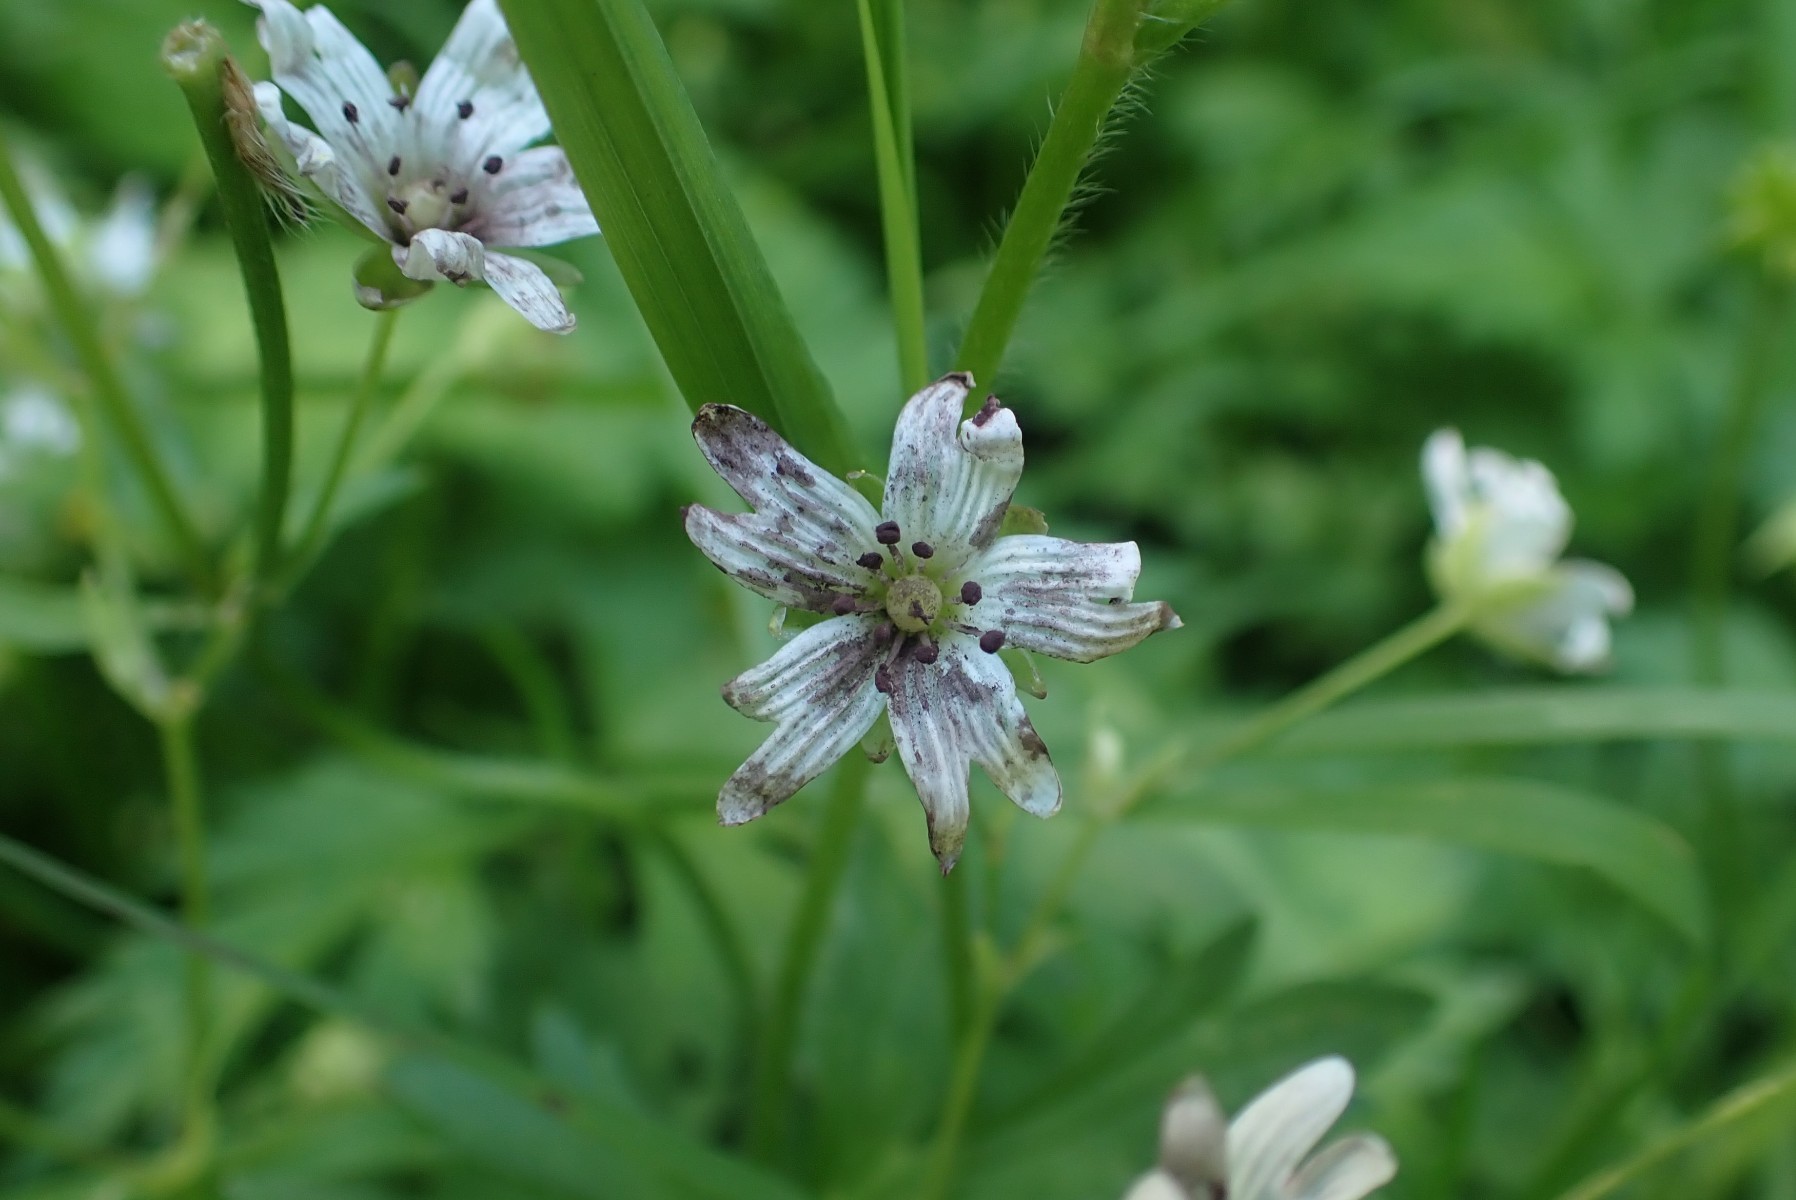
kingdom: Fungi
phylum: Basidiomycota
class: Microbotryomycetes
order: Microbotryales
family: Microbotryaceae
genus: Microbotryum
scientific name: Microbotryum stellariae
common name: fladstjerne-støvbladrust
